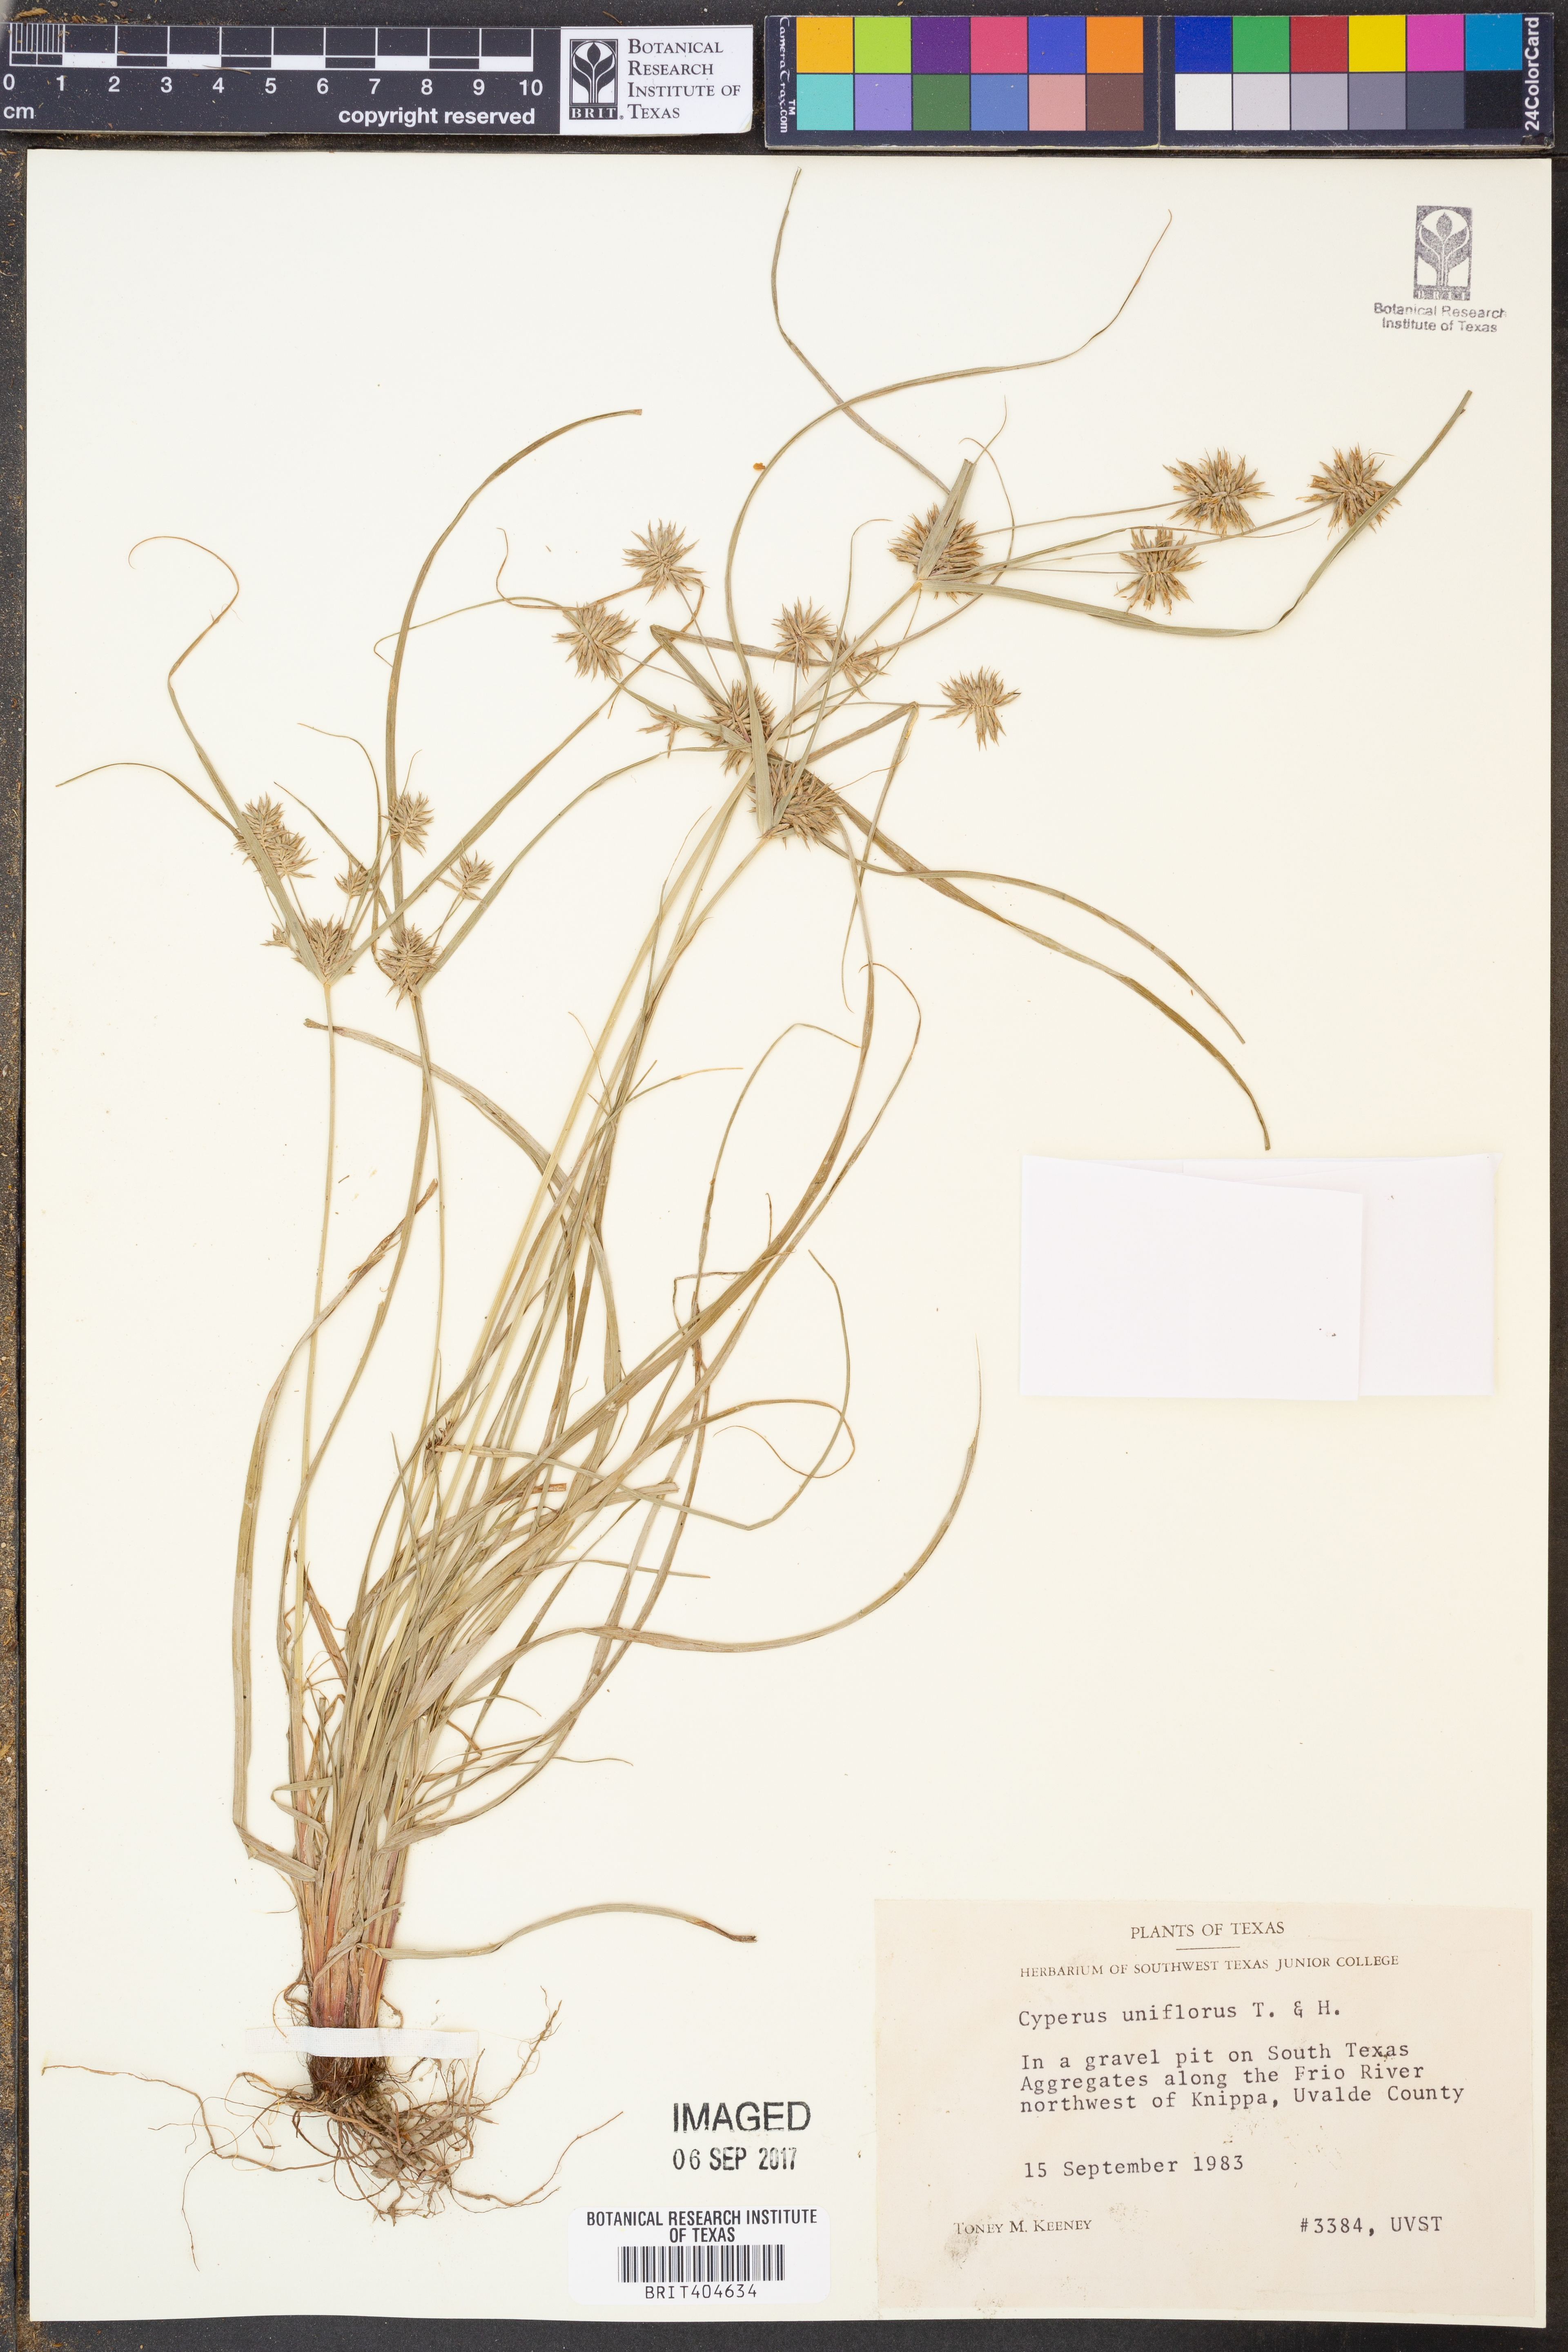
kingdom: Plantae
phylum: Tracheophyta
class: Liliopsida
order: Poales
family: Cyperaceae
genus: Cyperus
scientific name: Cyperus retroflexus
